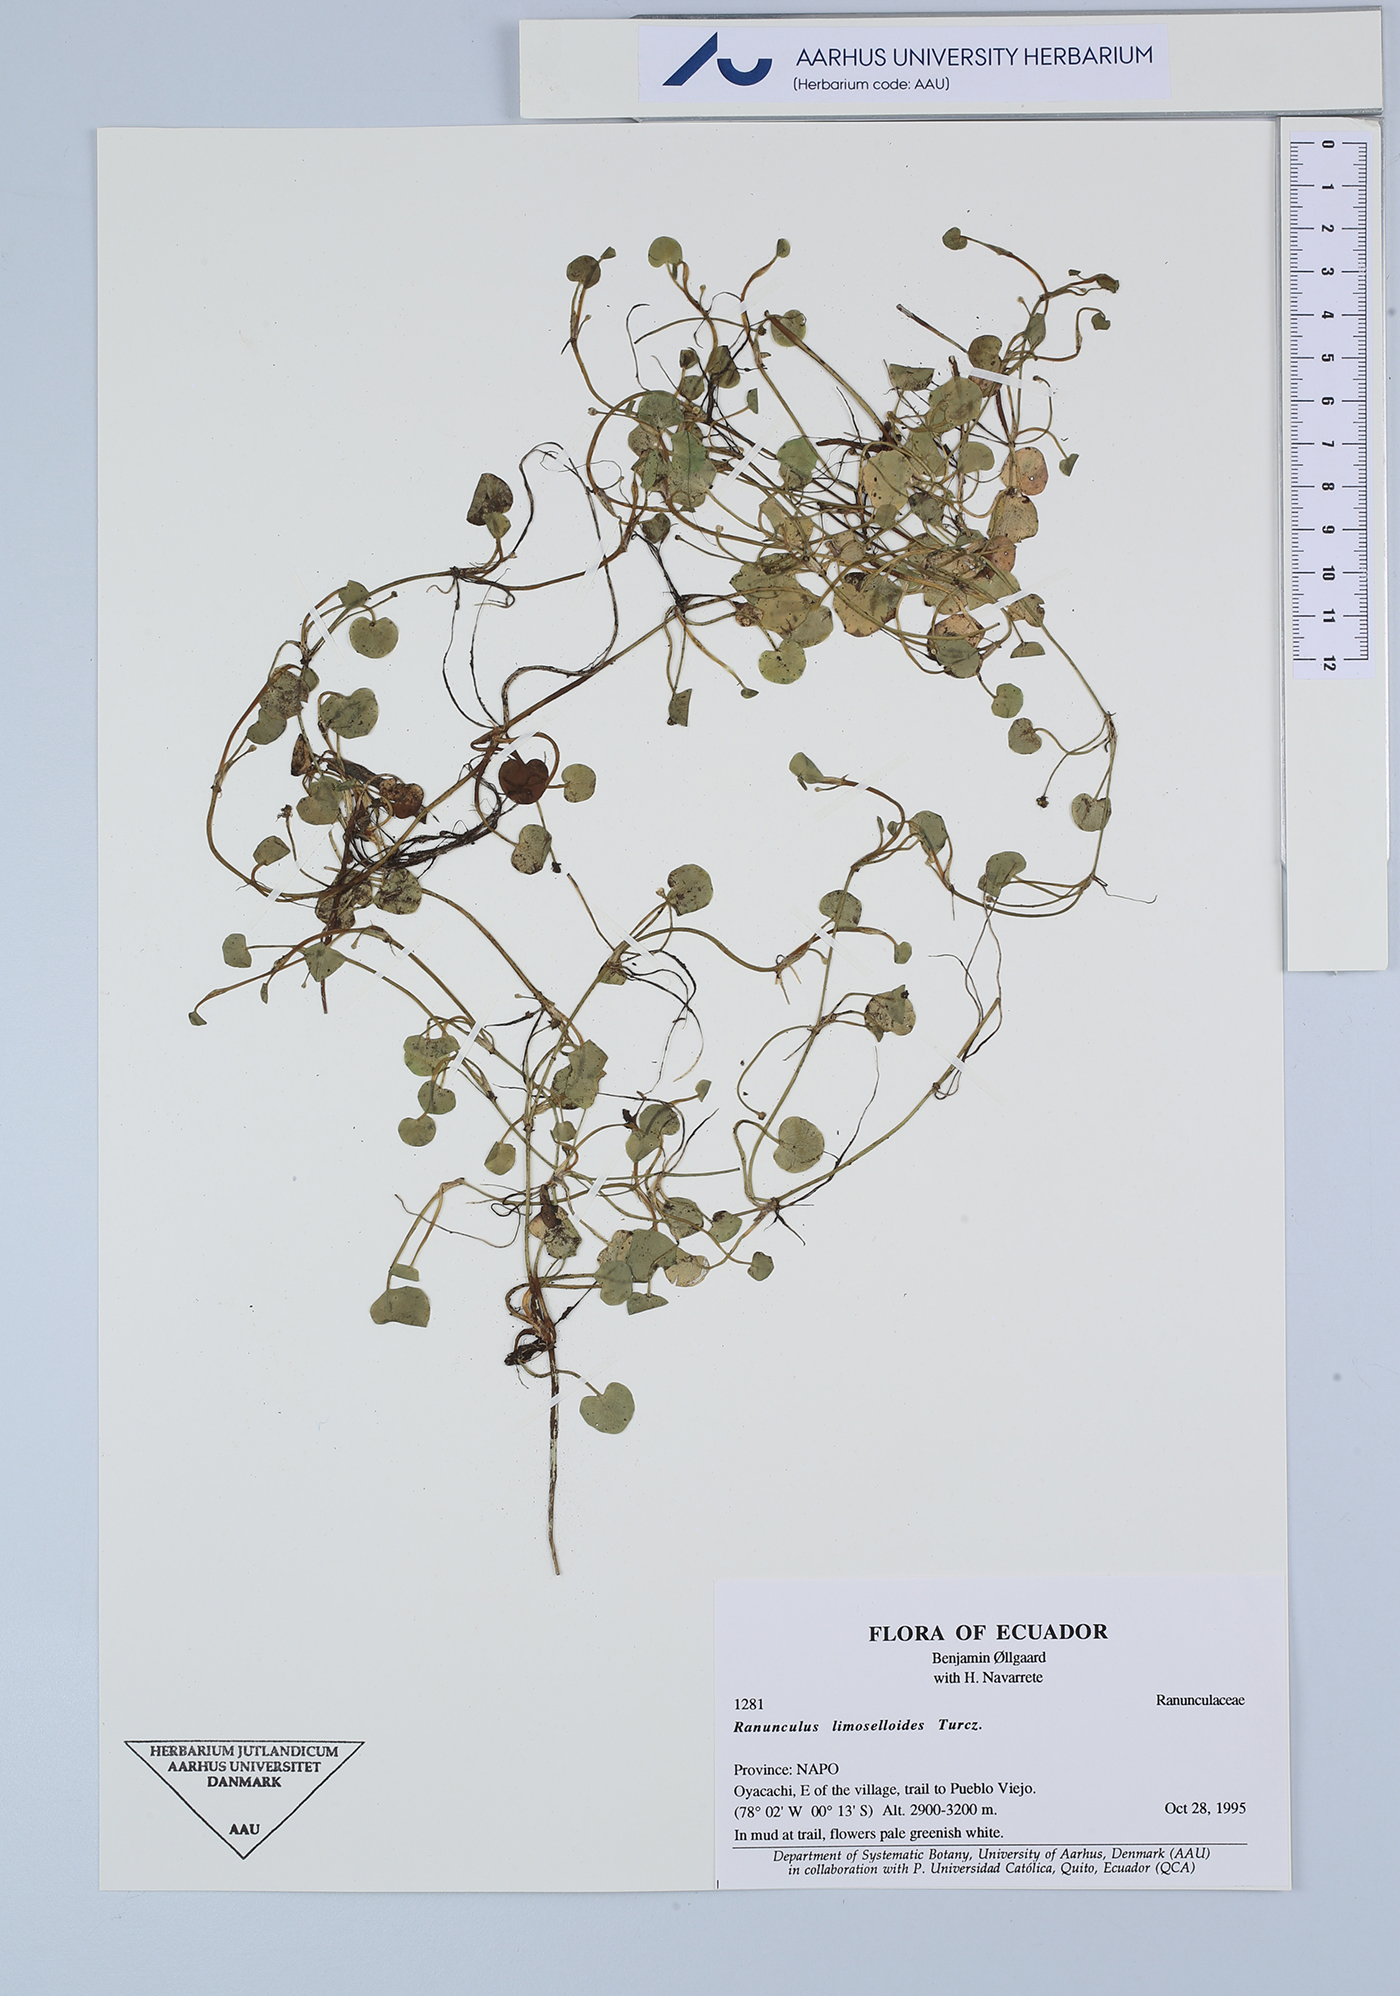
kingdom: Plantae
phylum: Tracheophyta
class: Magnoliopsida
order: Ranunculales
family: Ranunculaceae
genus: Ranunculus
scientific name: Ranunculus limoselloides
